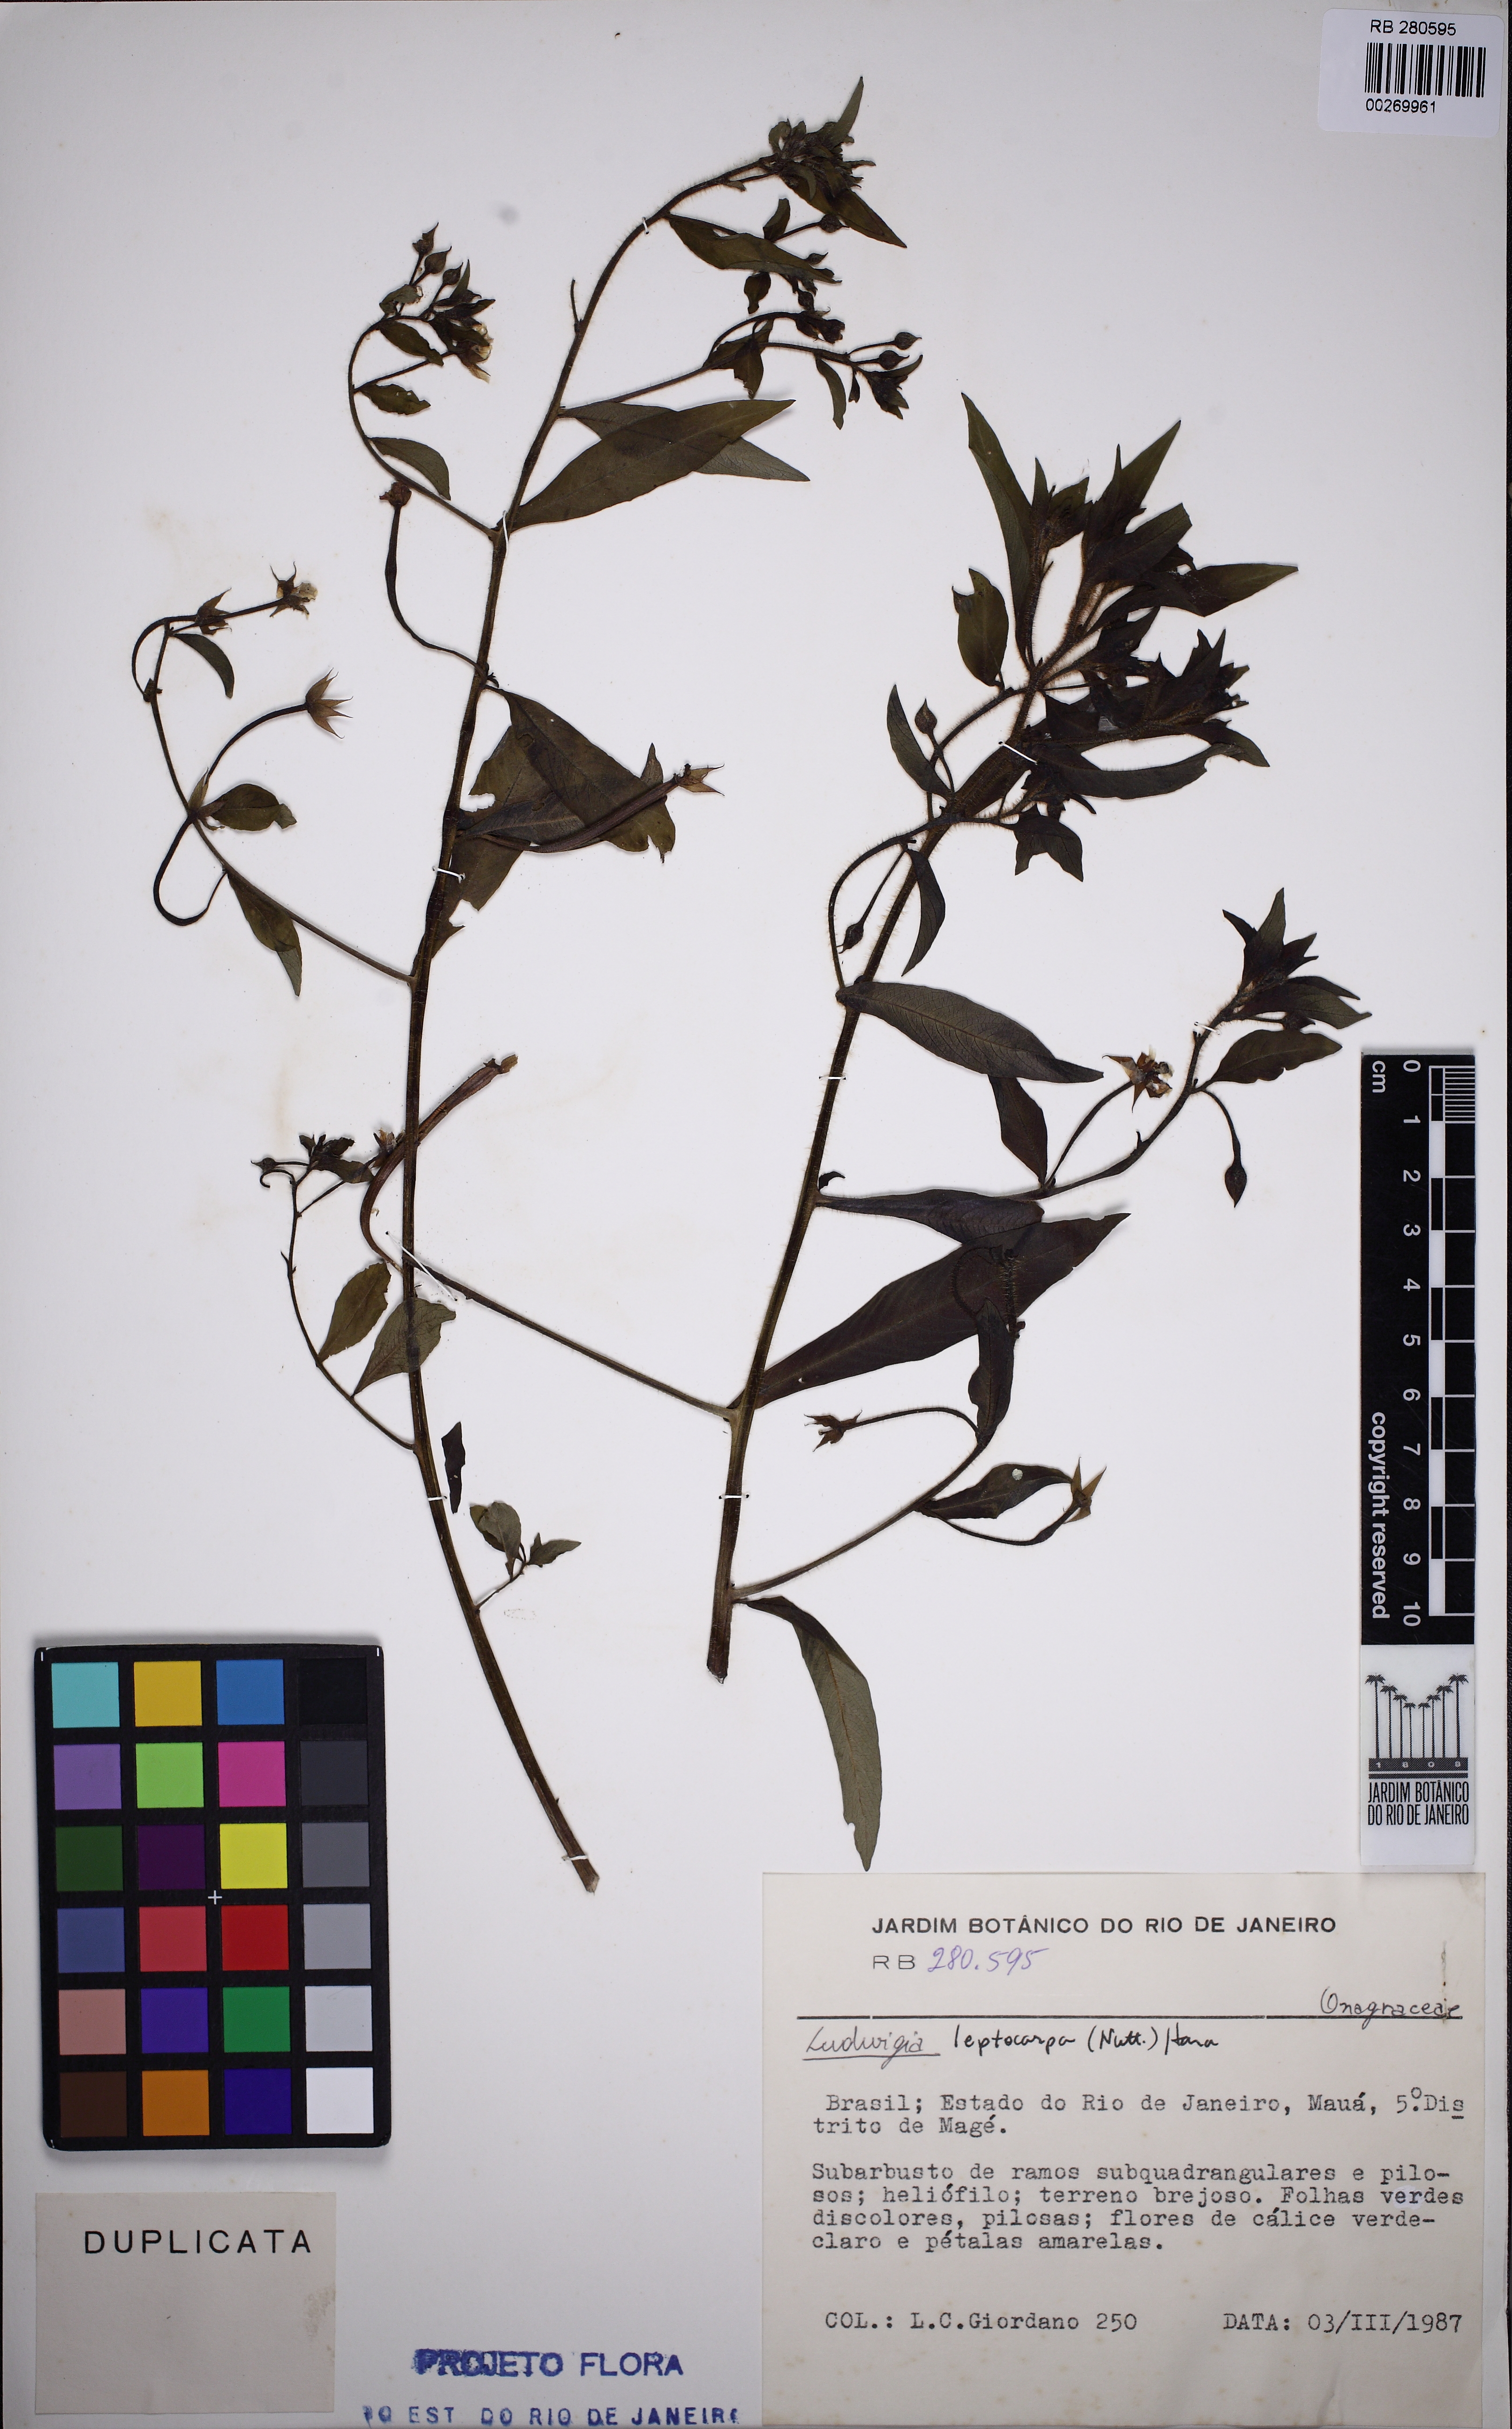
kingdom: Plantae
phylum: Tracheophyta
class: Magnoliopsida
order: Myrtales
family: Onagraceae
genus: Ludwigia
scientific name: Ludwigia leptocarpa
